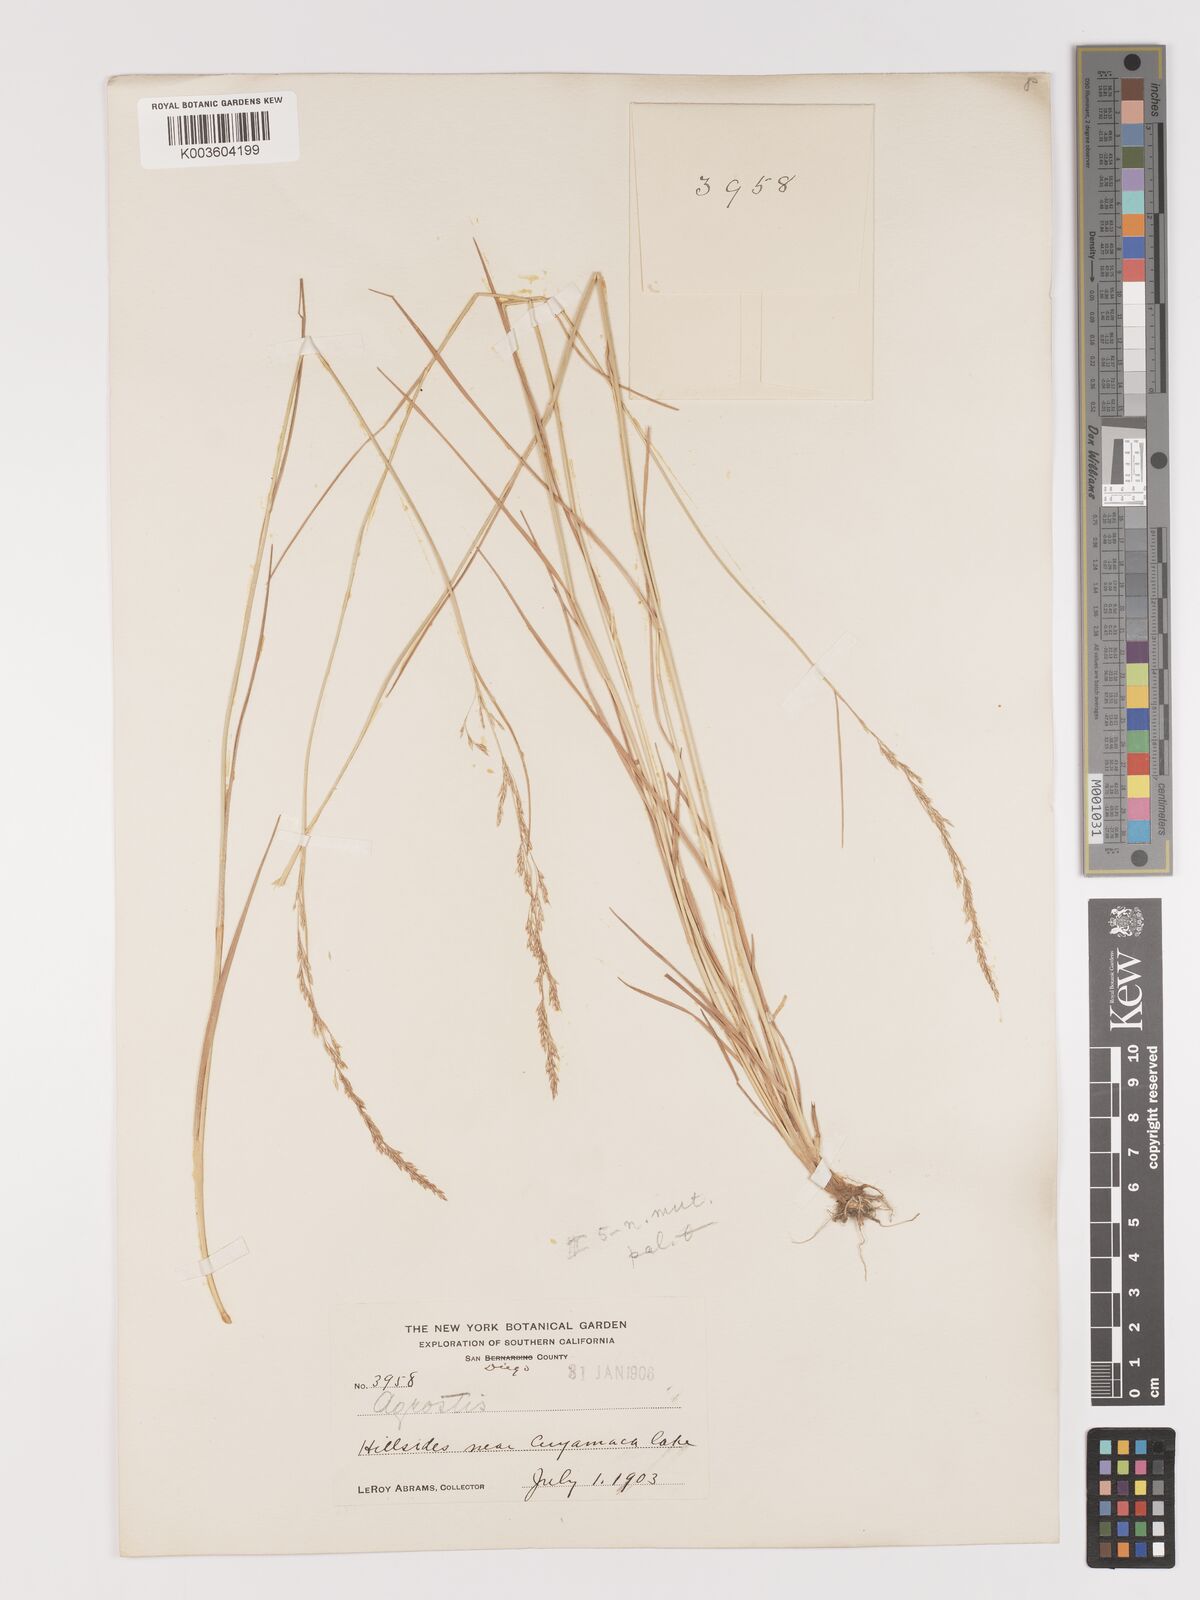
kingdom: Plantae
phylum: Tracheophyta
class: Liliopsida
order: Poales
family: Poaceae
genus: Agrostis
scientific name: Agrostis pallens
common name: Dune bent
